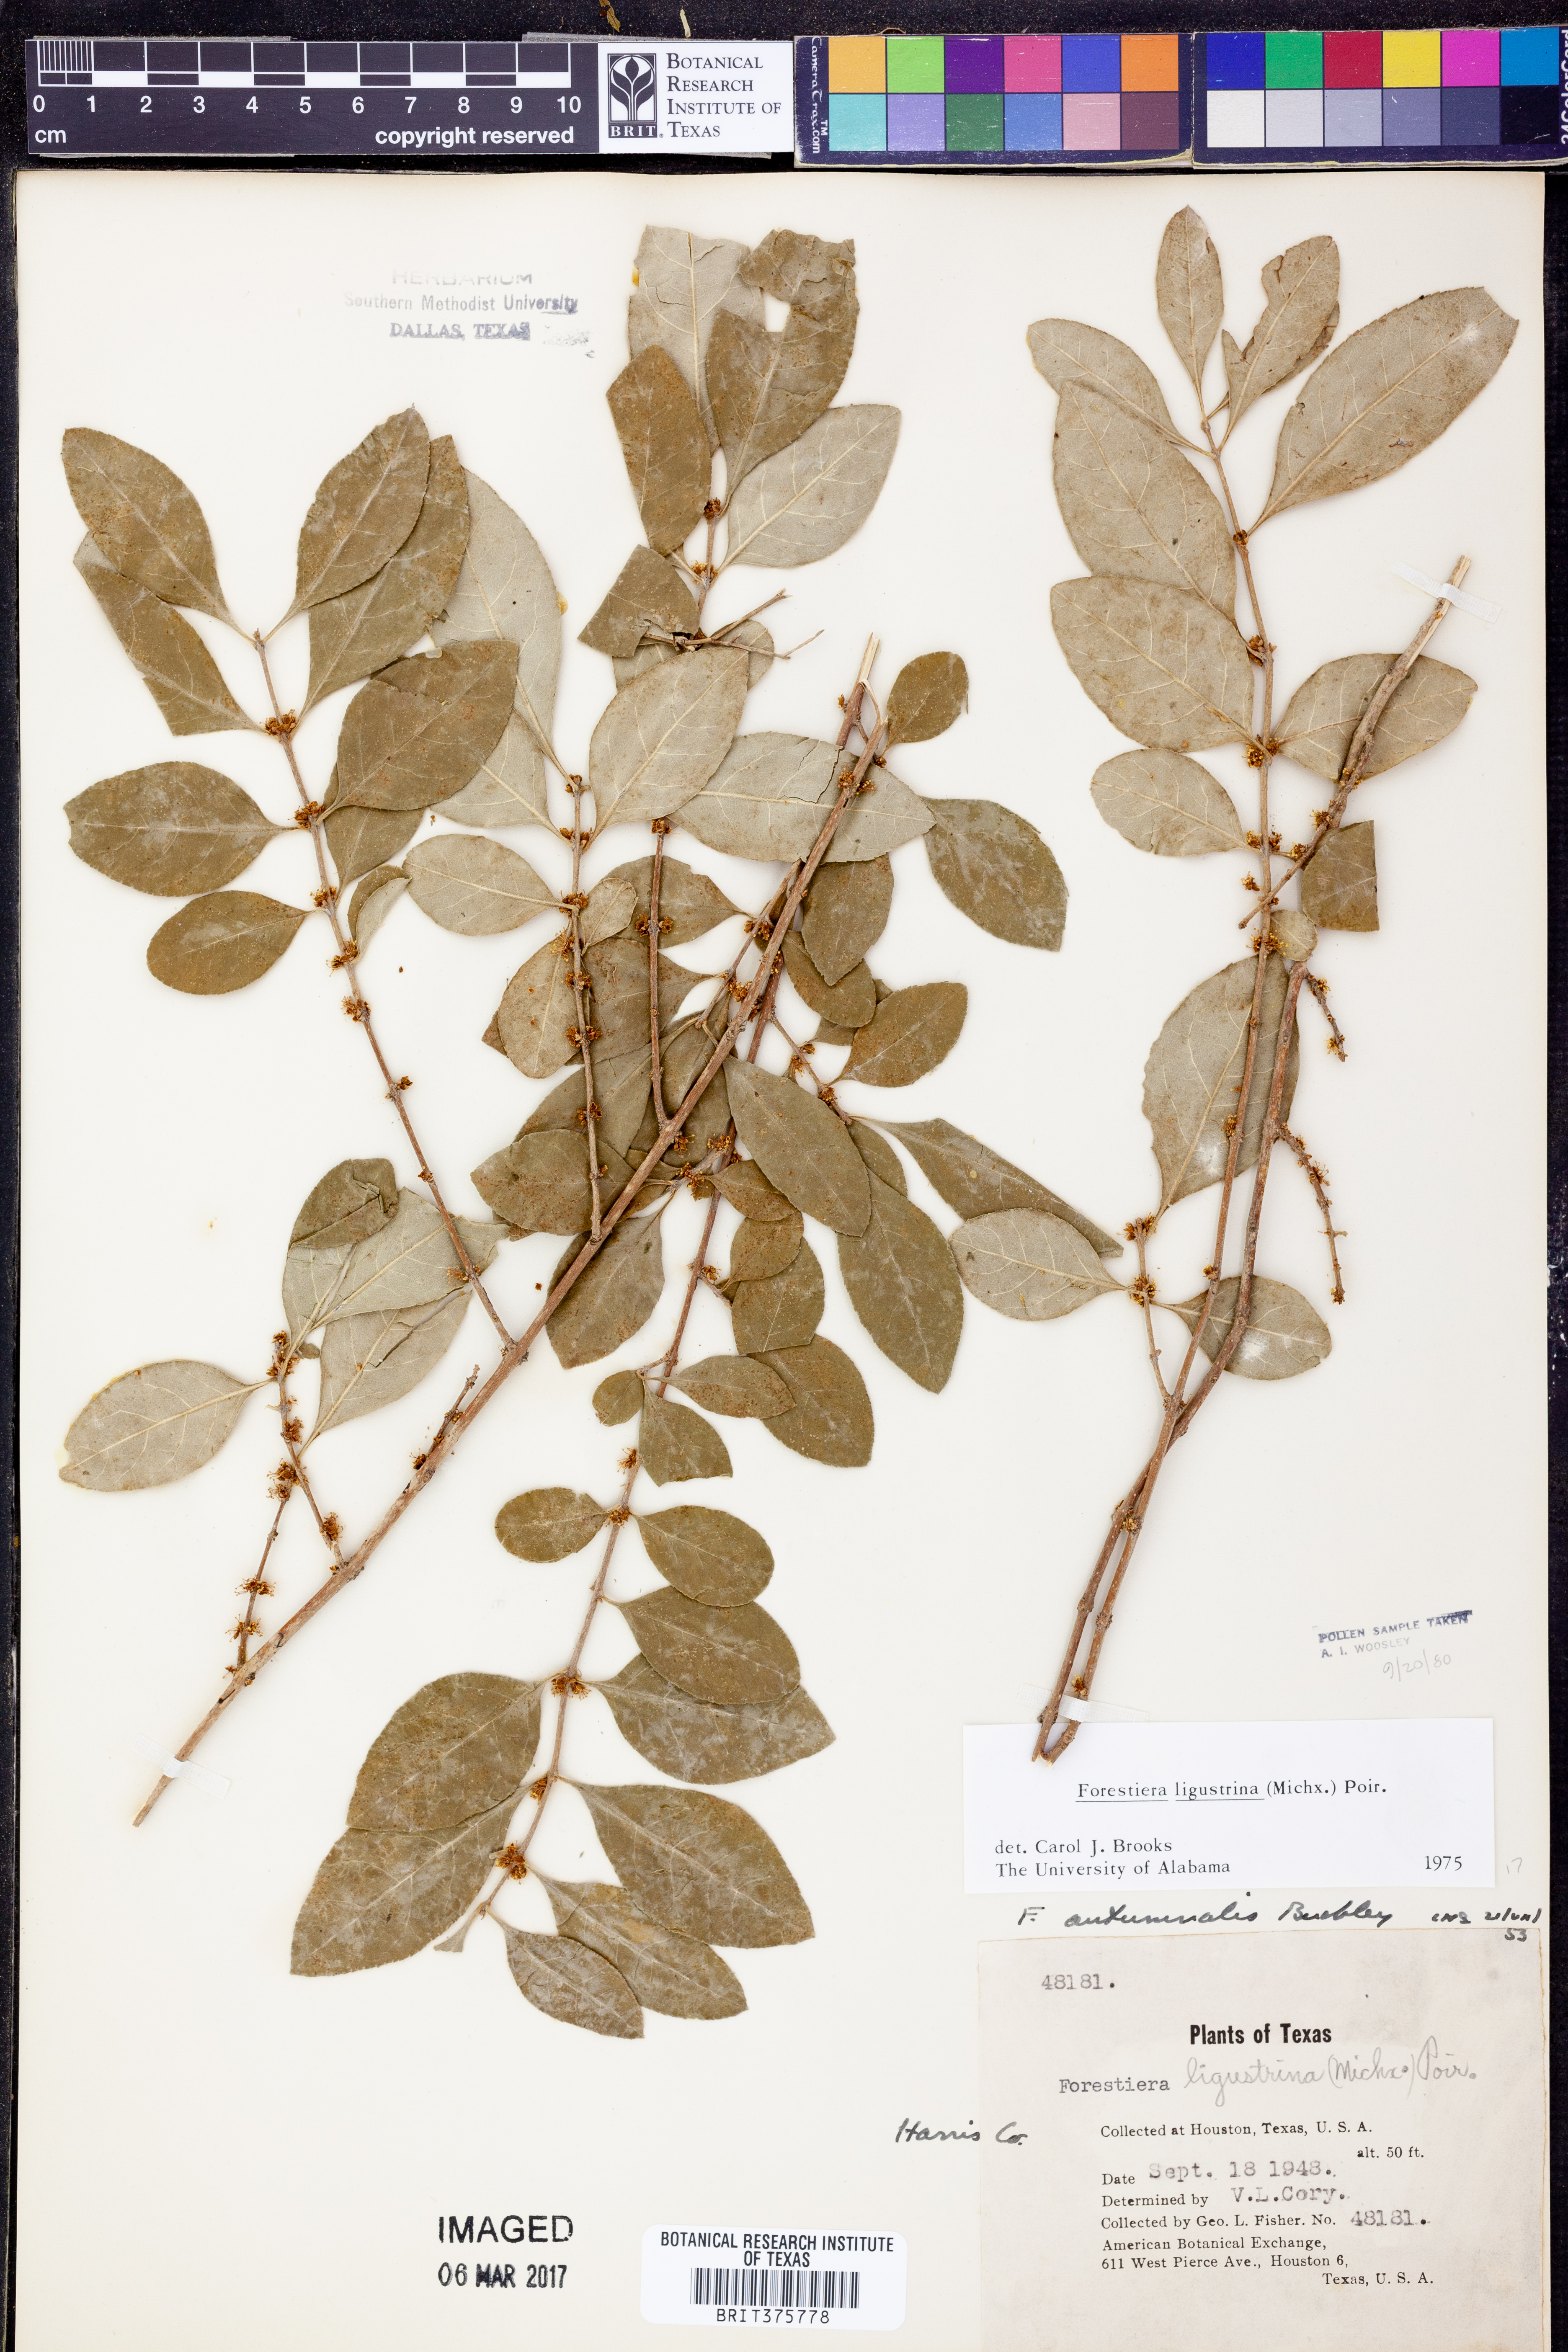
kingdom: Plantae
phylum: Tracheophyta
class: Magnoliopsida
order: Lamiales
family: Oleaceae
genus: Forestiera
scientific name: Forestiera ligustrina
